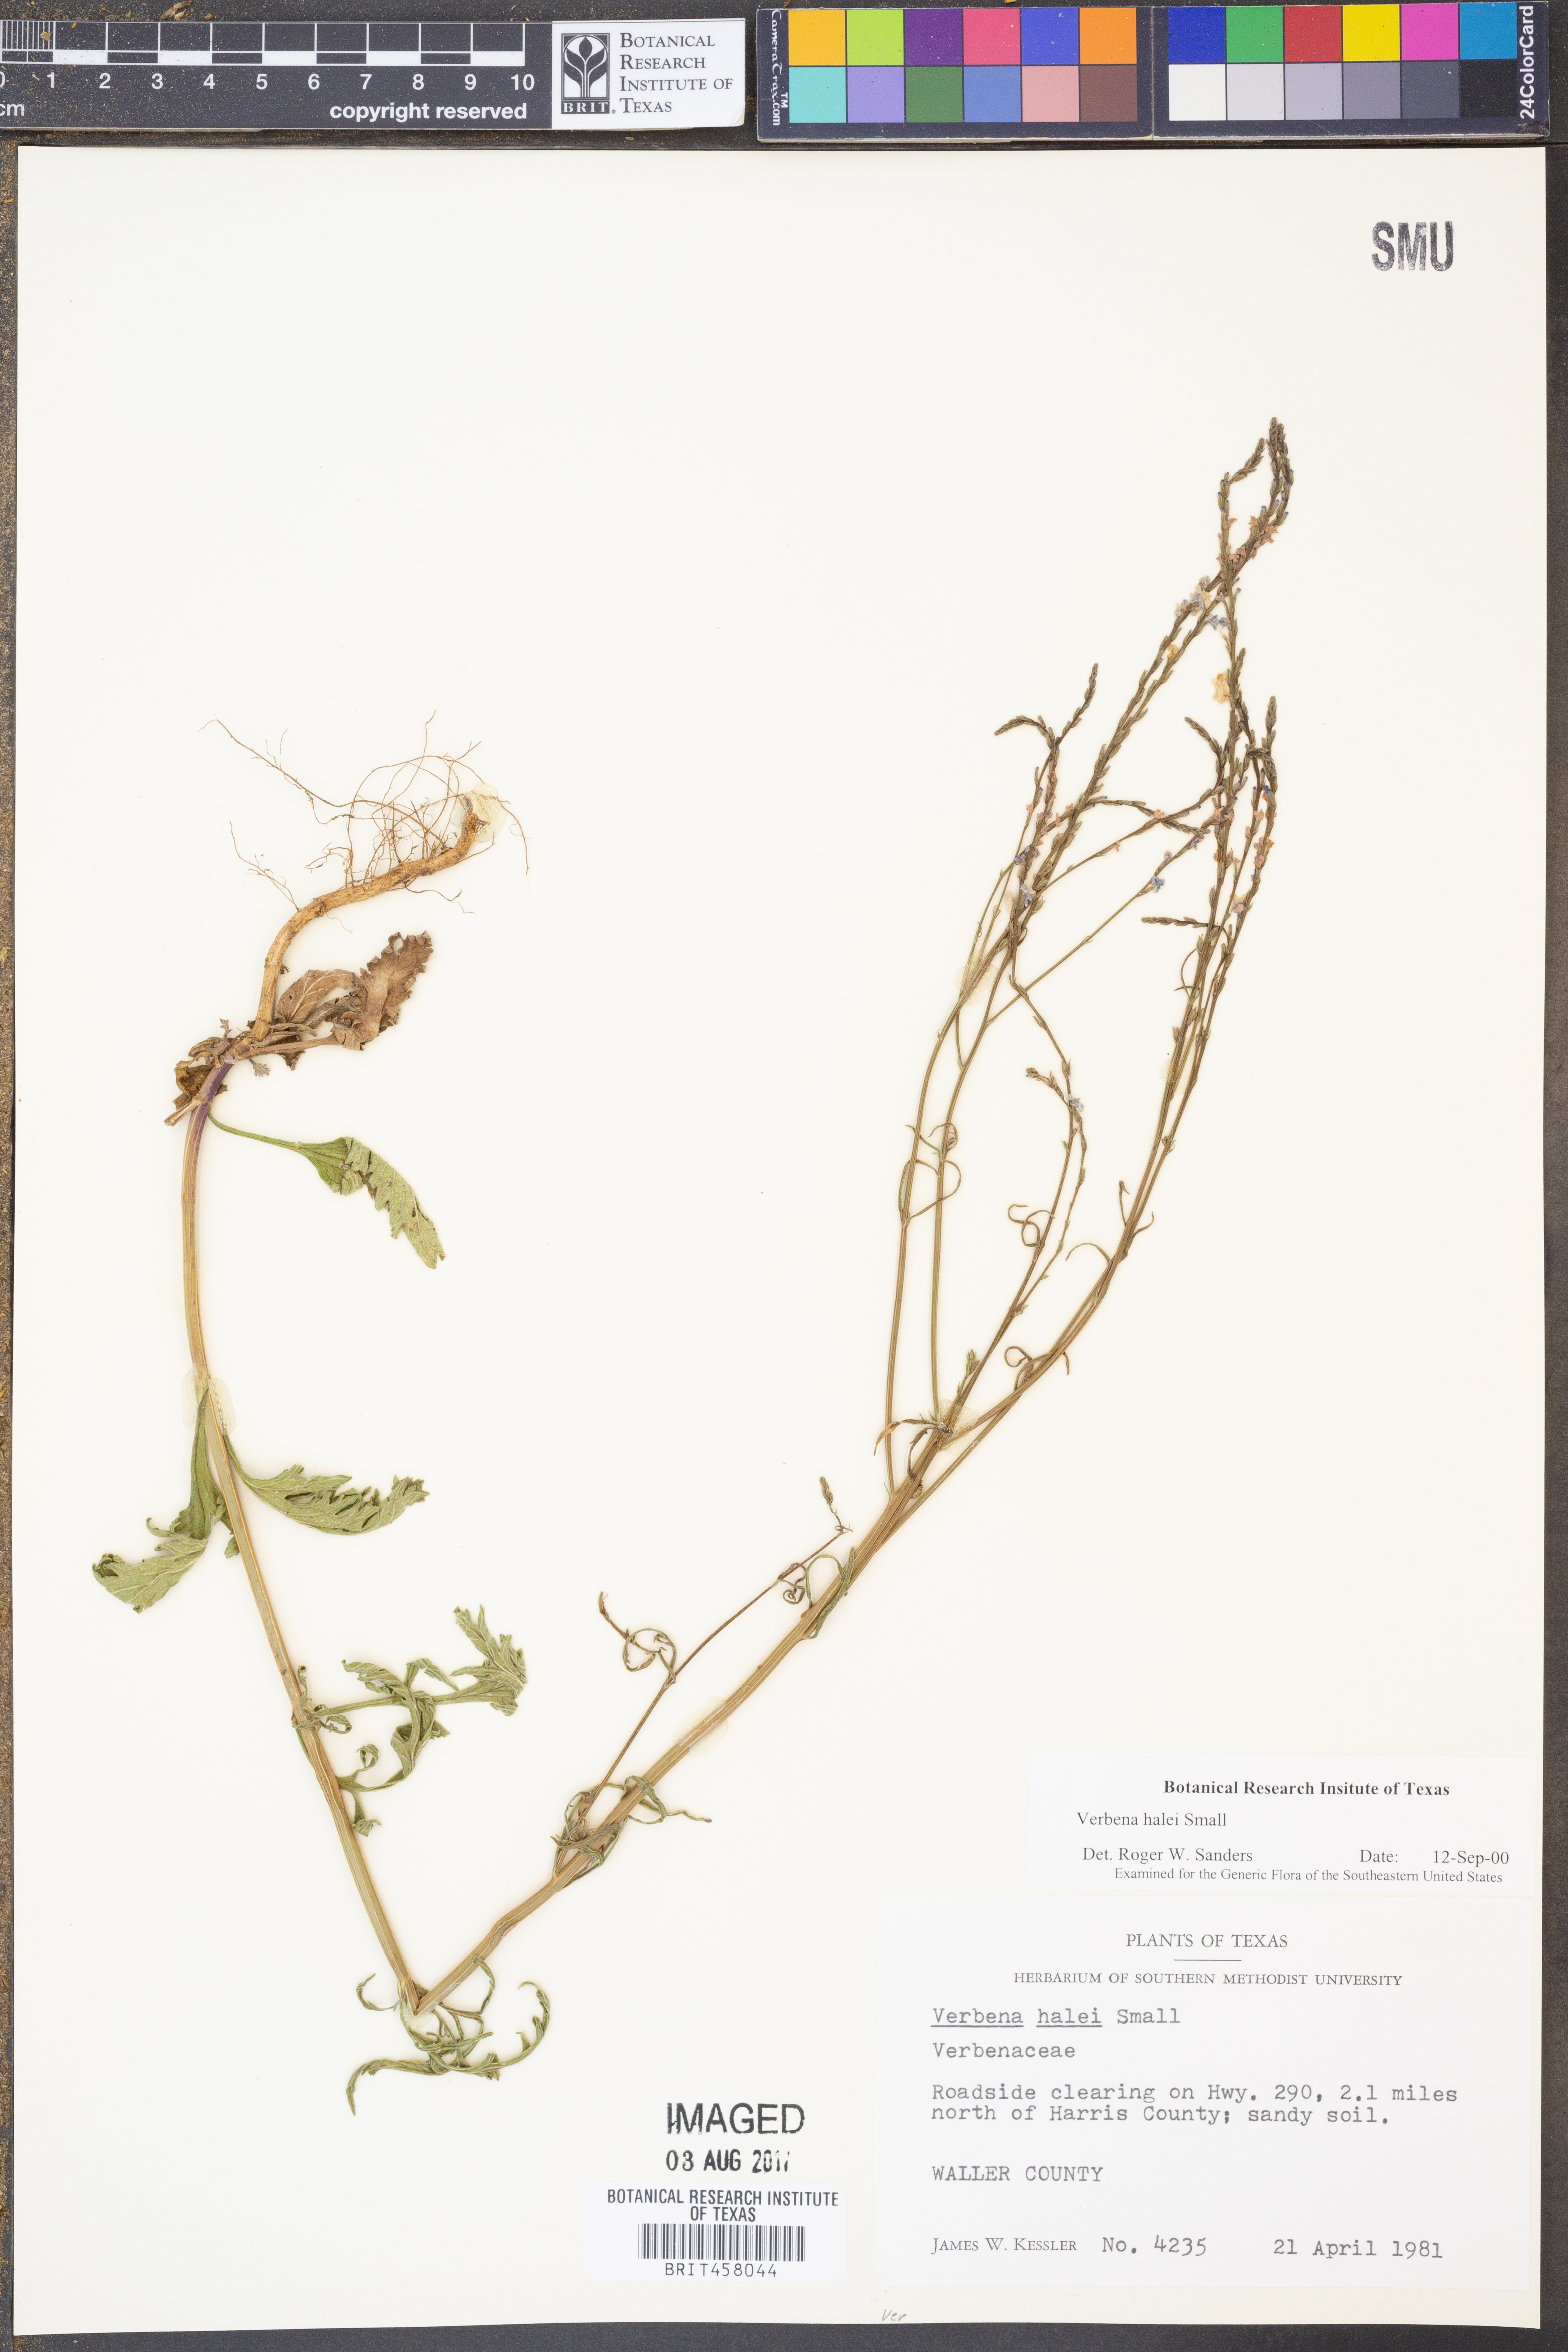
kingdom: Plantae
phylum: Tracheophyta
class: Magnoliopsida
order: Lamiales
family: Verbenaceae
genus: Verbena
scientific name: Verbena halei
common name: Texas vervain
